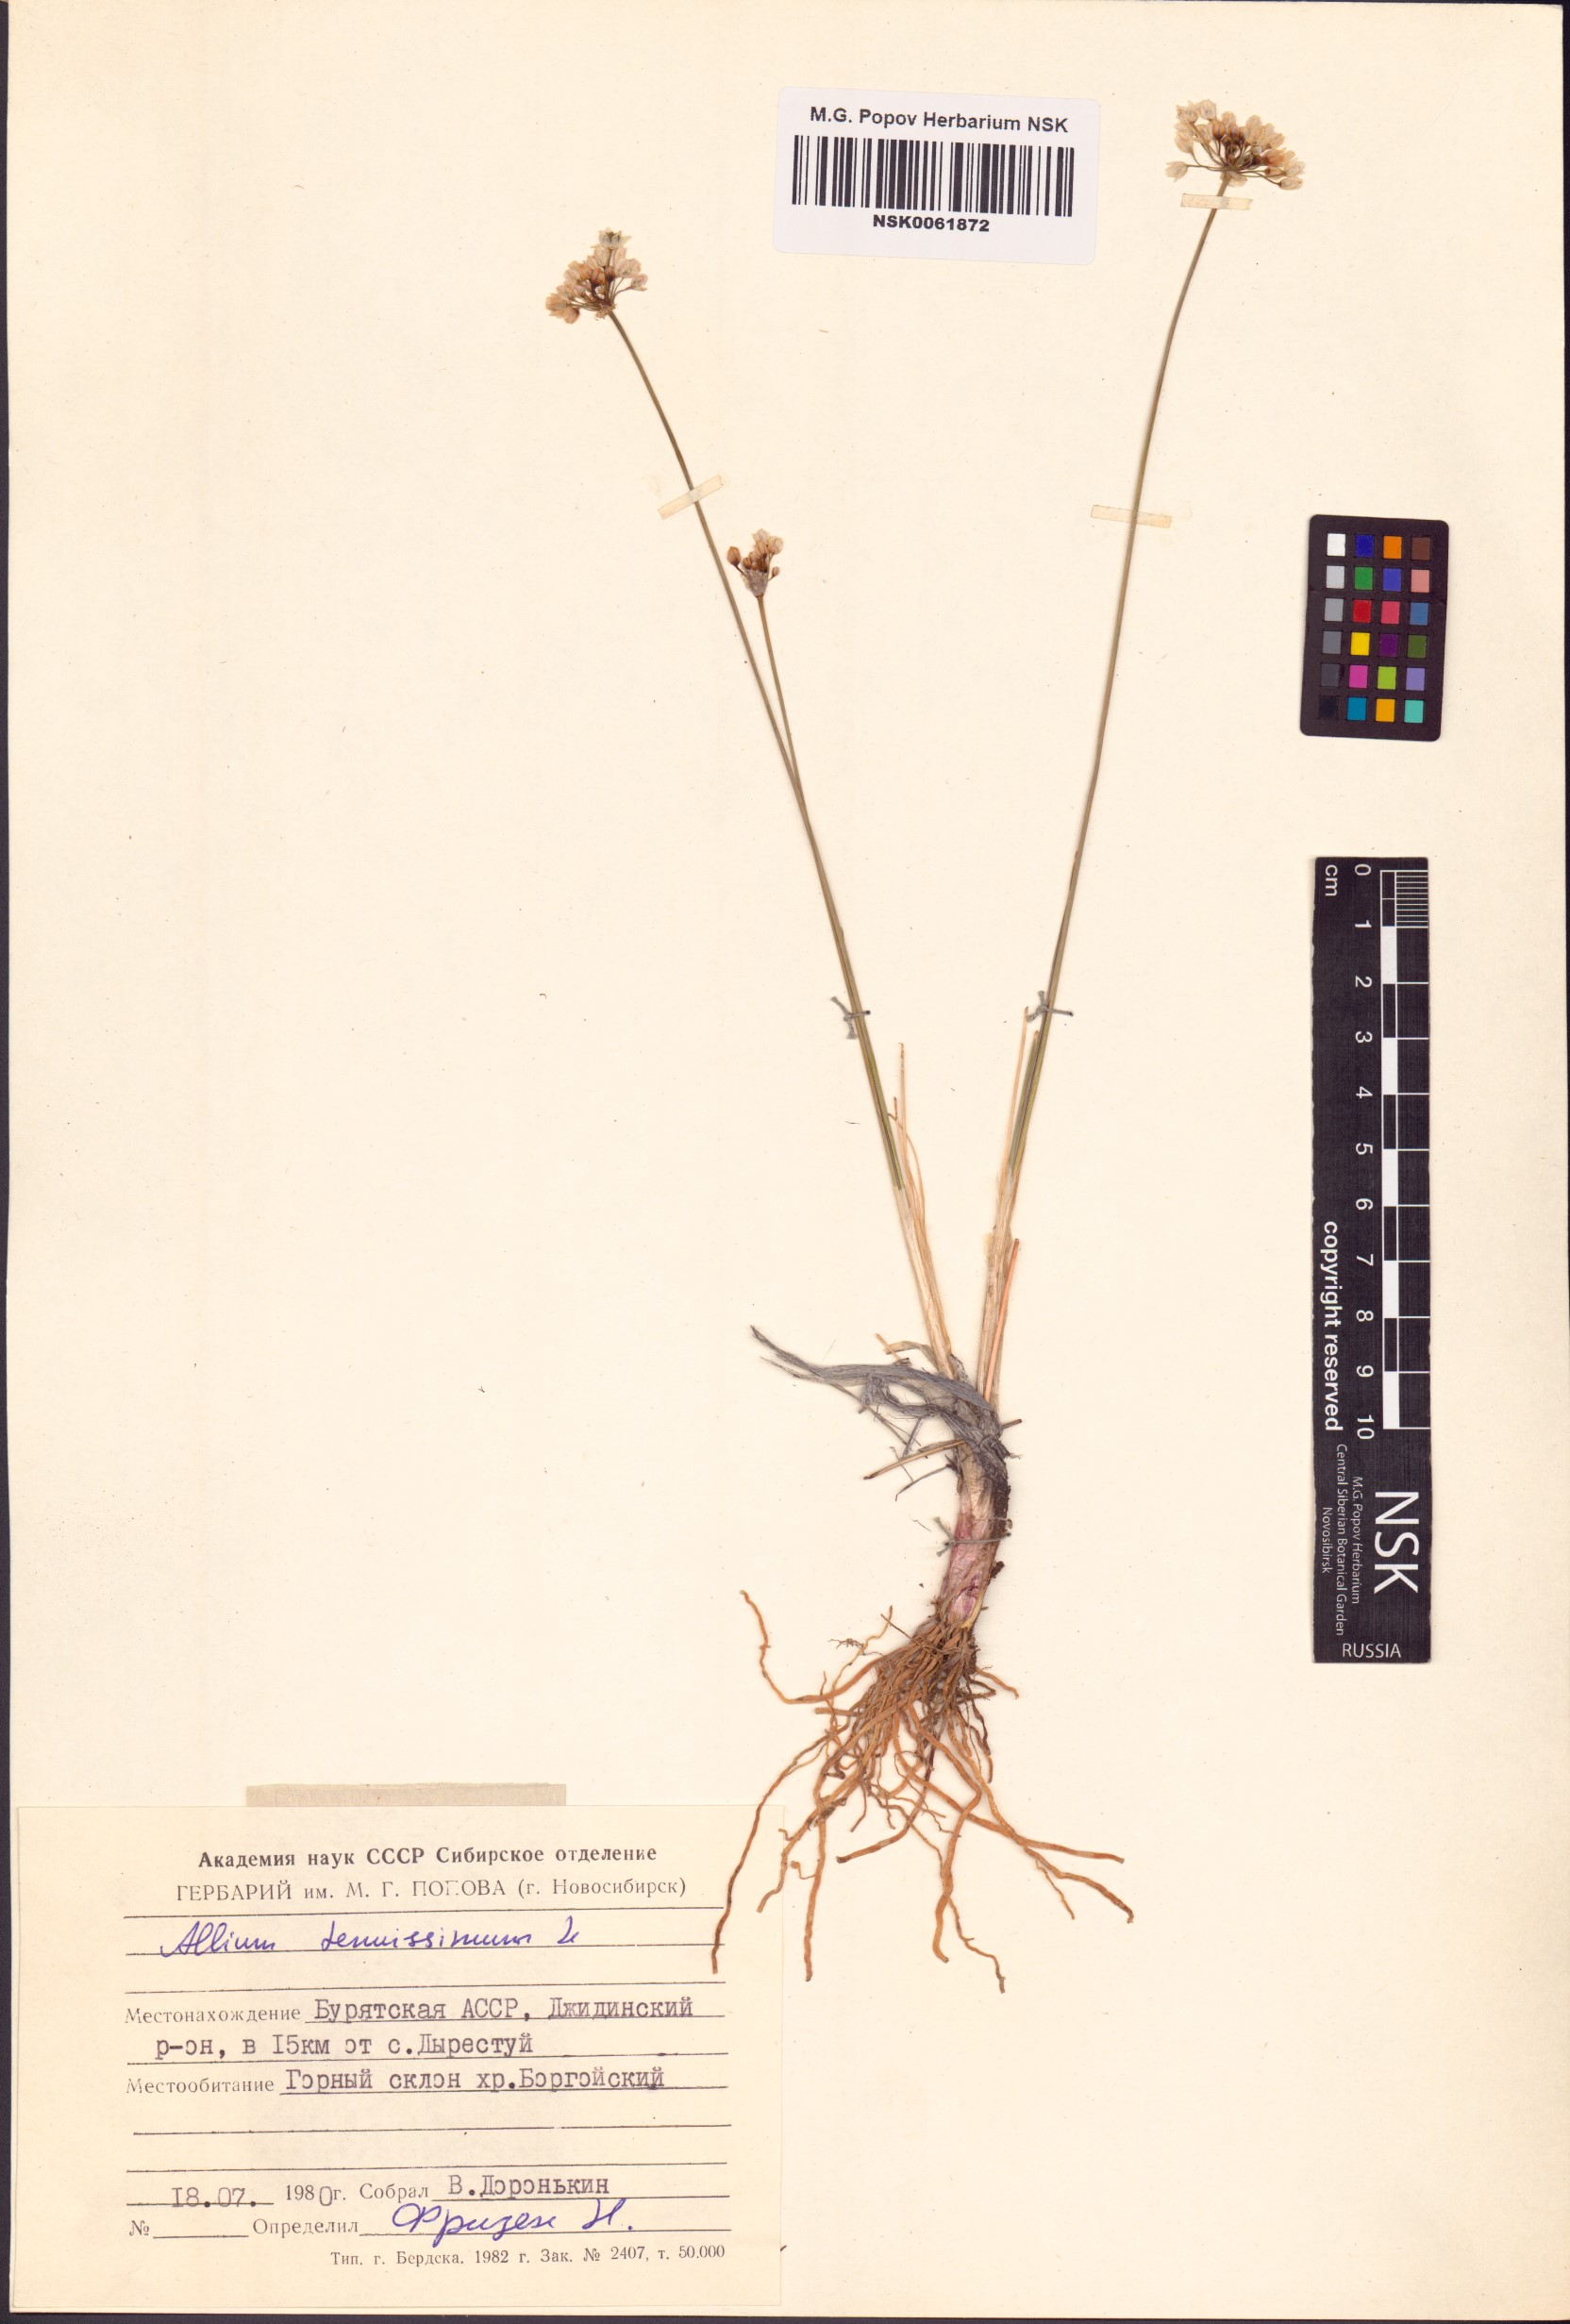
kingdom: Plantae
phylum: Tracheophyta
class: Liliopsida
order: Asparagales
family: Amaryllidaceae
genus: Allium
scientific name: Allium tenuissimum
